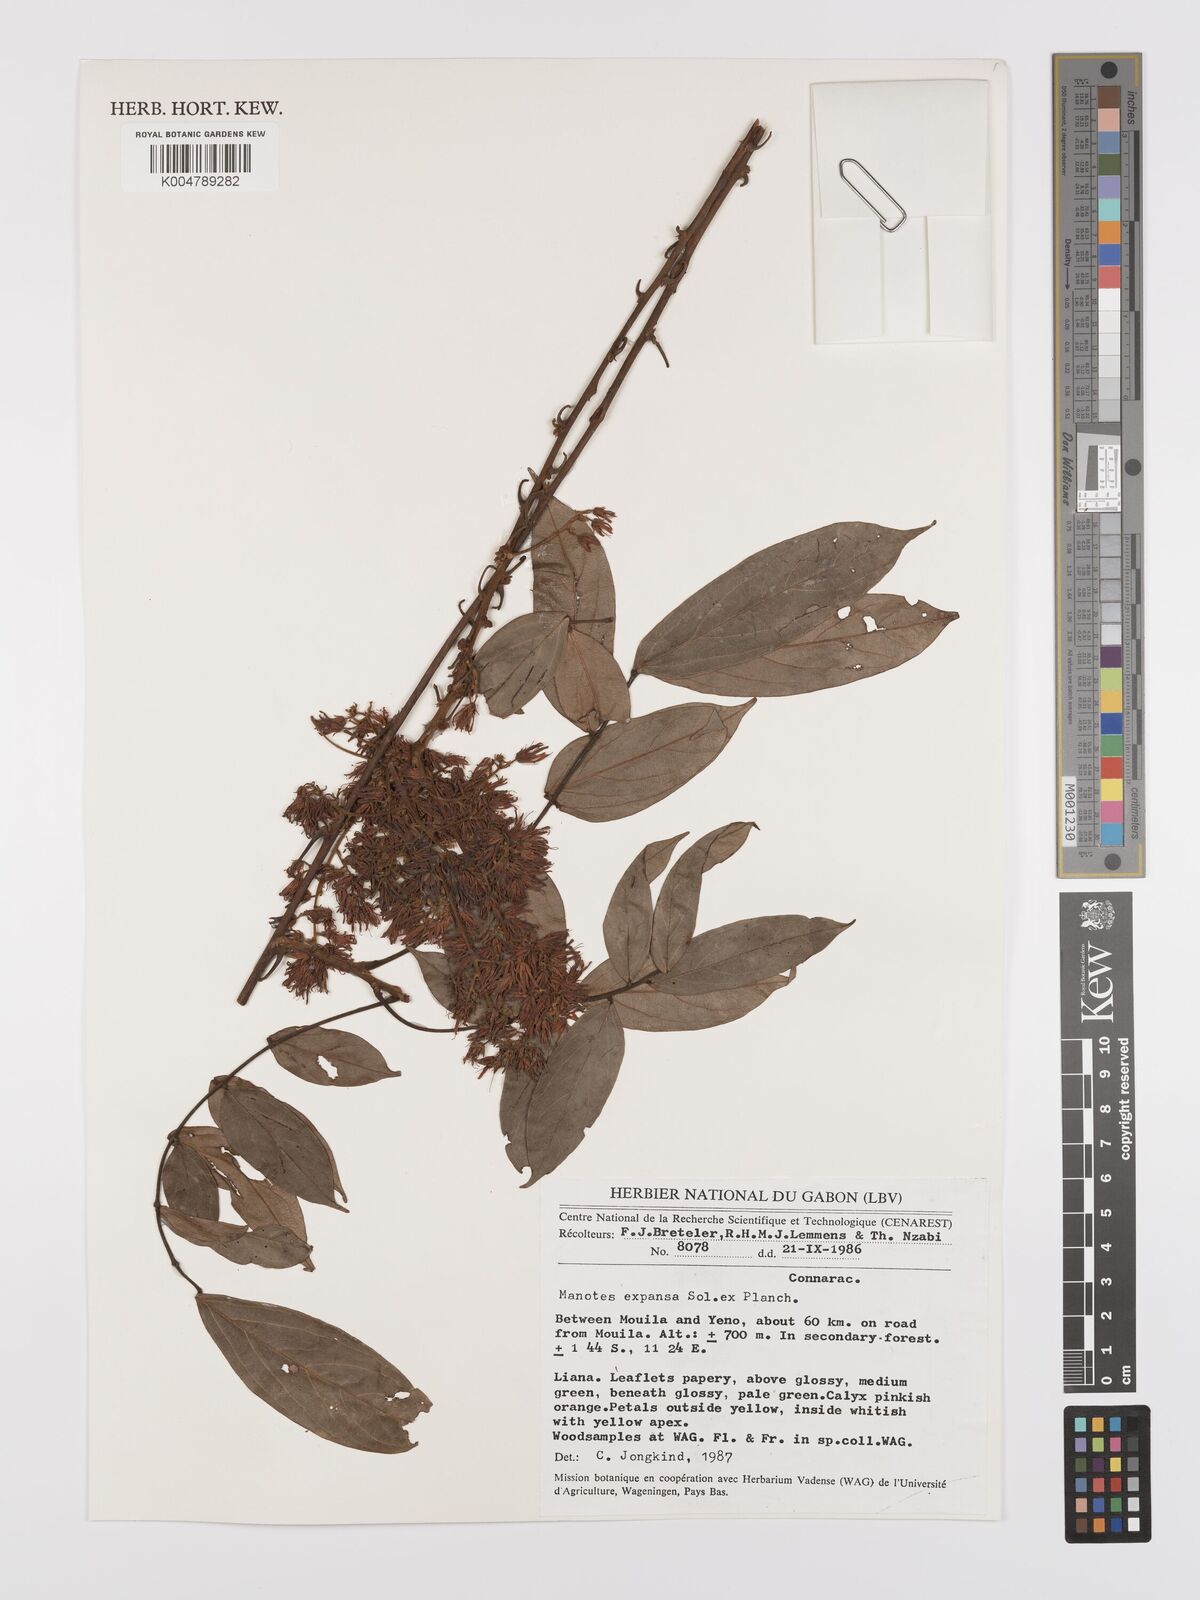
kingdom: Plantae
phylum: Tracheophyta
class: Magnoliopsida
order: Oxalidales
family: Connaraceae
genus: Manotes
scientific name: Manotes expansa
